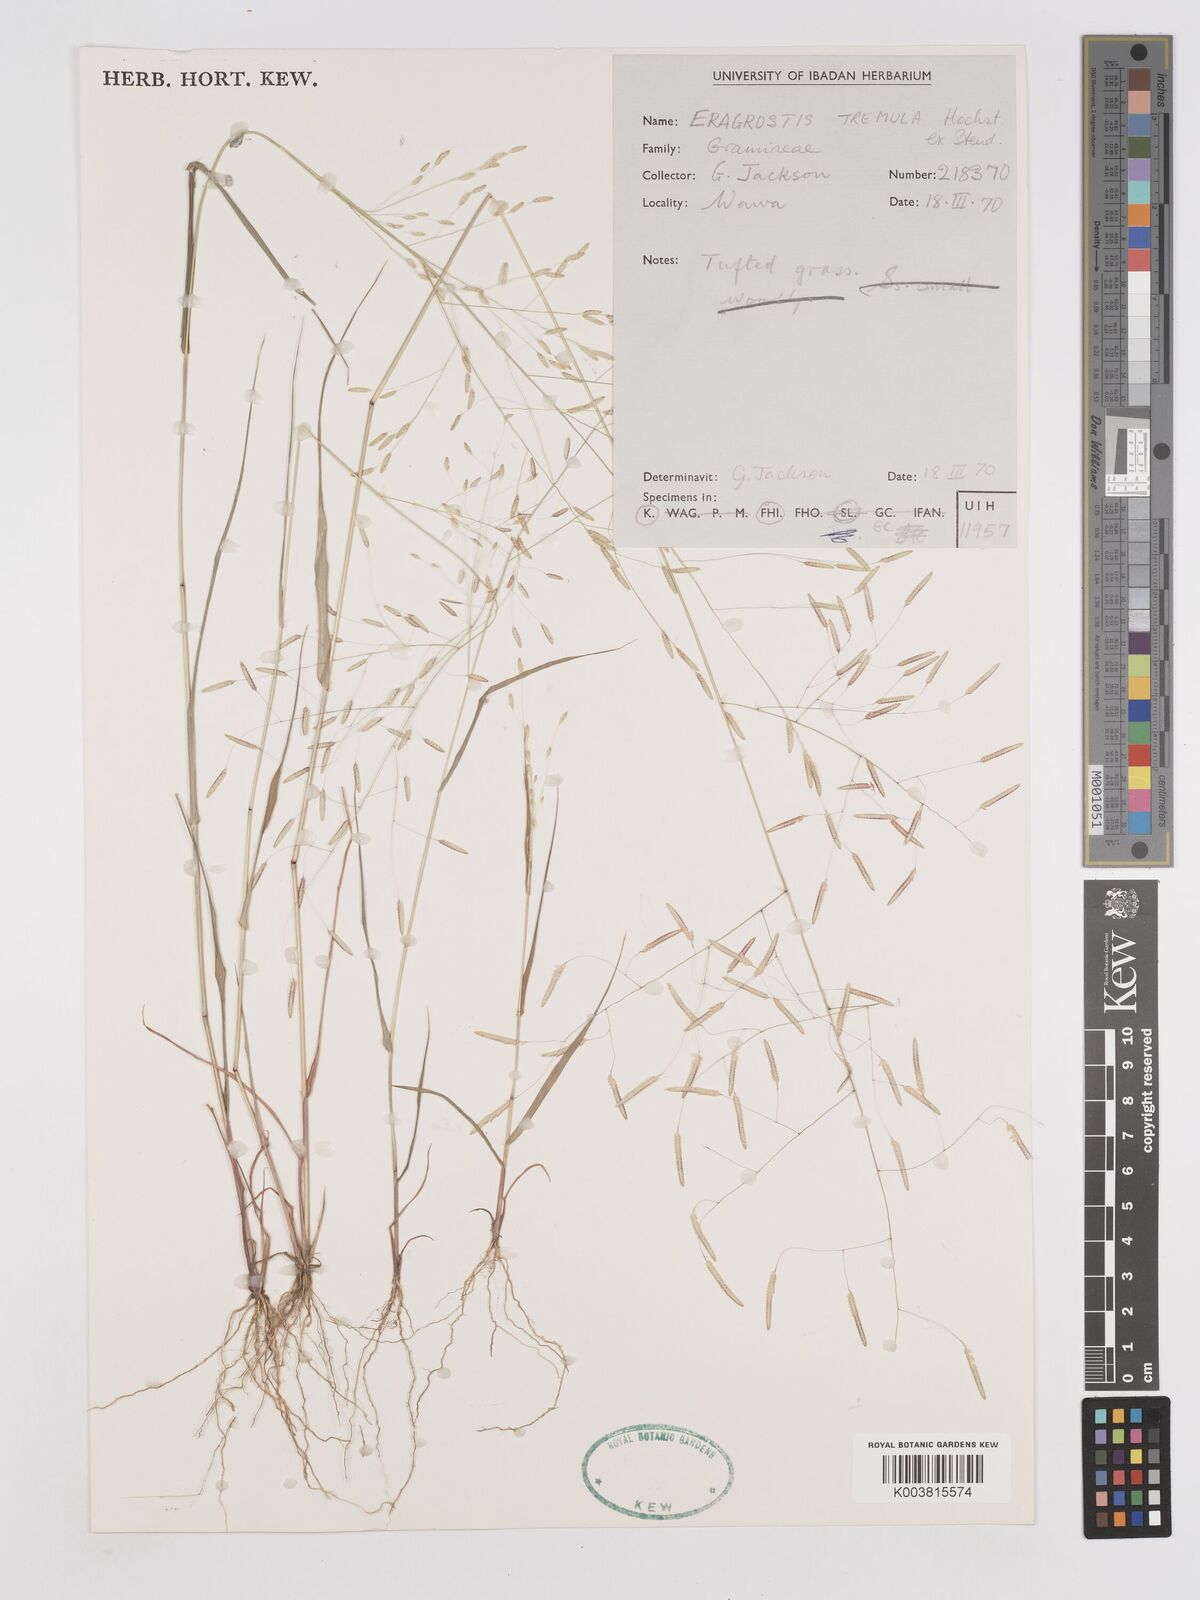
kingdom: Plantae
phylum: Tracheophyta
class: Liliopsida
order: Poales
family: Poaceae
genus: Eragrostis
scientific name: Eragrostis tremula
